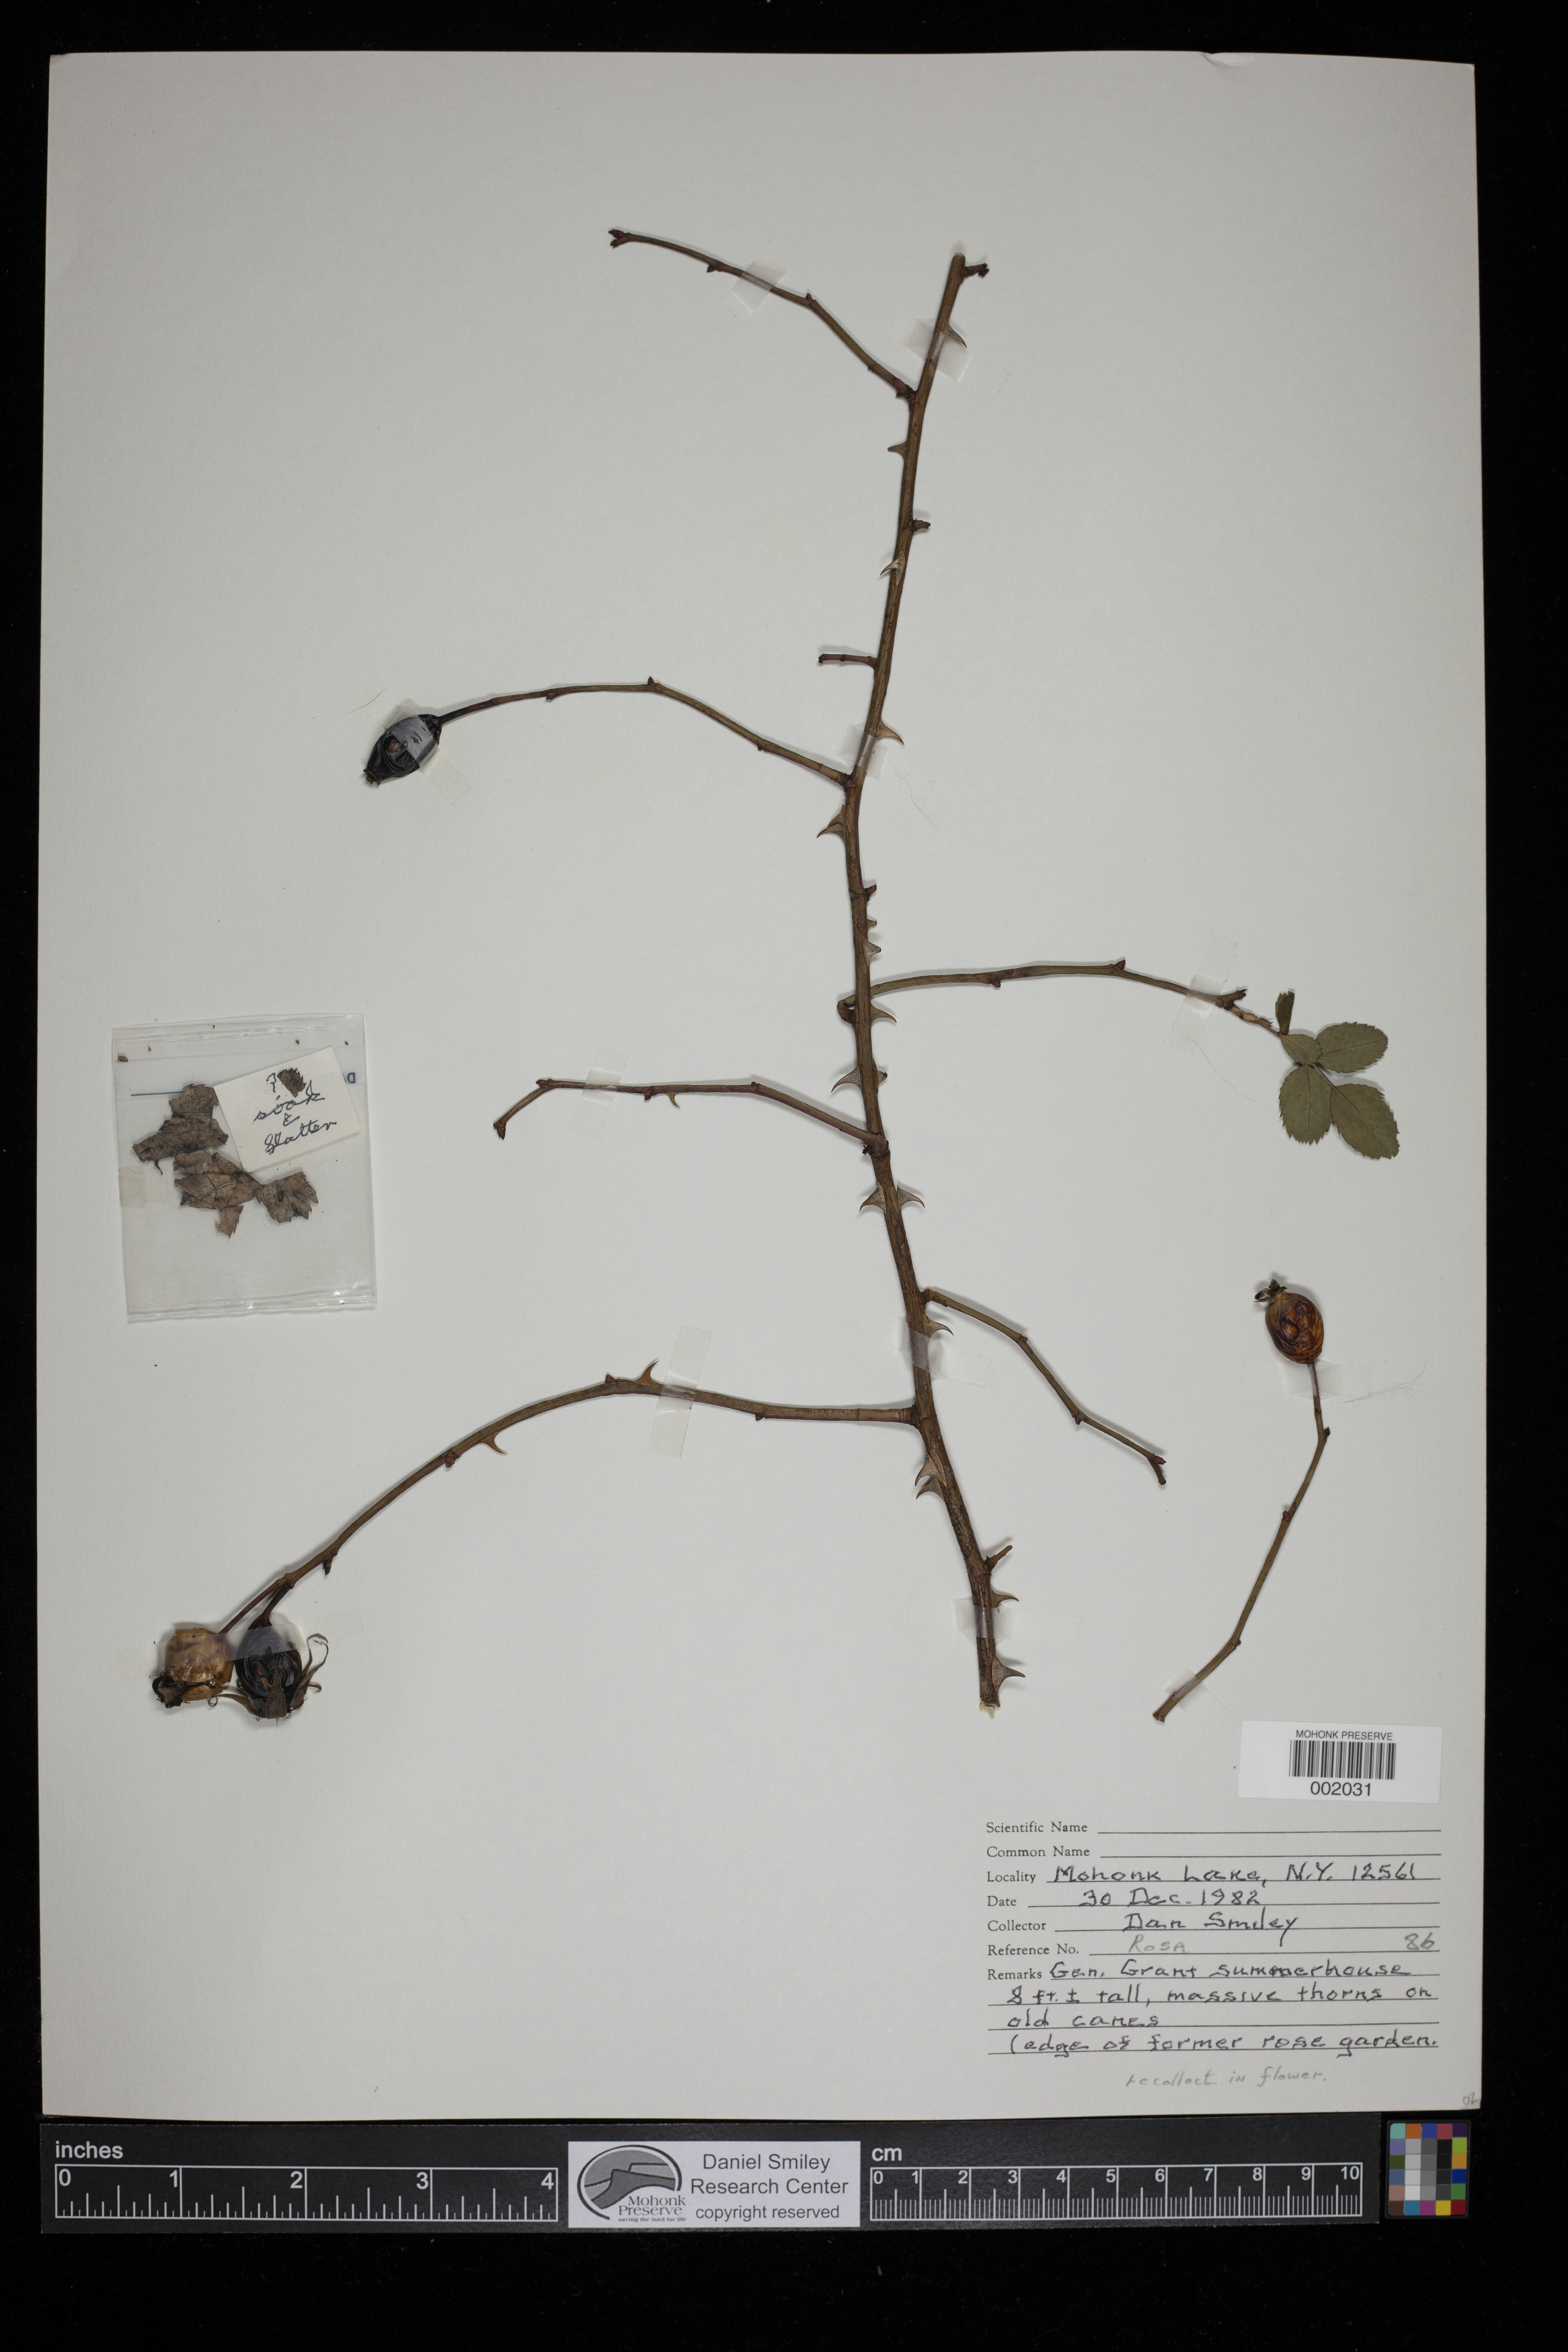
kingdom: Plantae
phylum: Tracheophyta
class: Magnoliopsida
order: Rosales
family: Rosaceae
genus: Rosa
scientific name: Rosa
